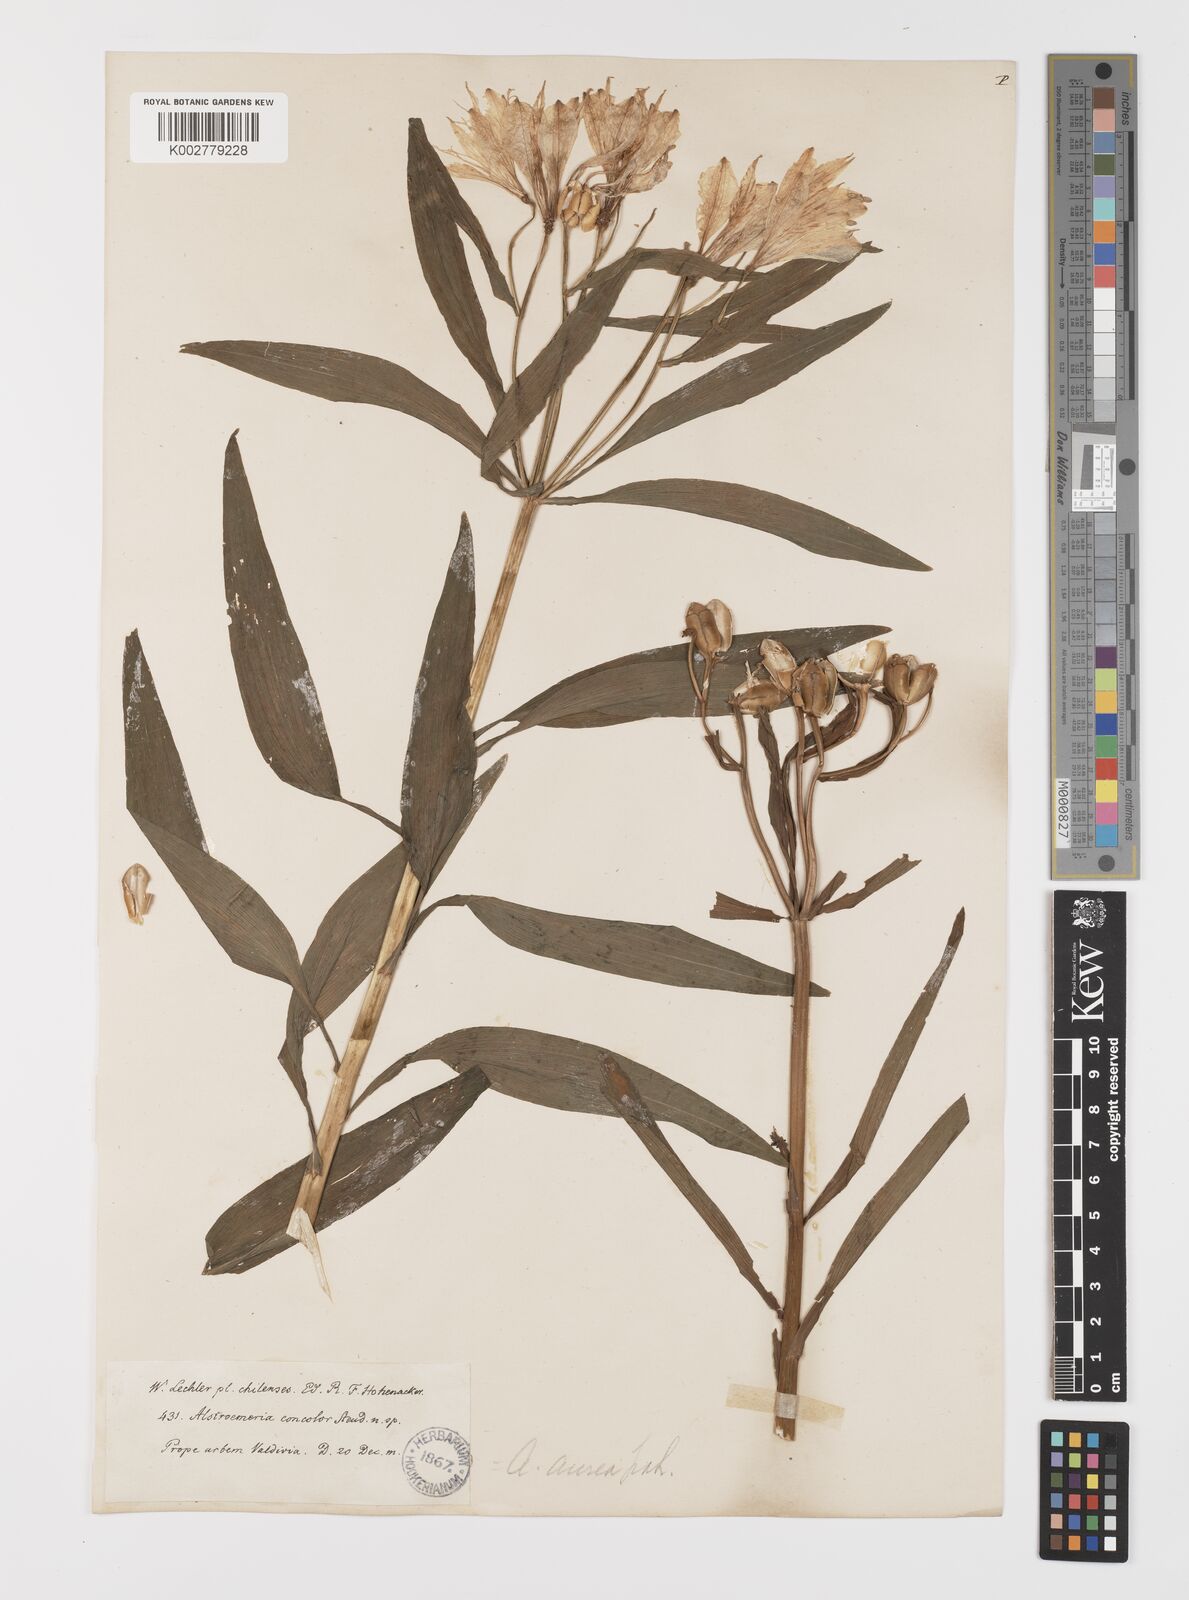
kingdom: Plantae
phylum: Tracheophyta
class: Liliopsida
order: Liliales
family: Alstroemeriaceae
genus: Alstroemeria
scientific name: Alstroemeria aurea
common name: Peruvian lily
